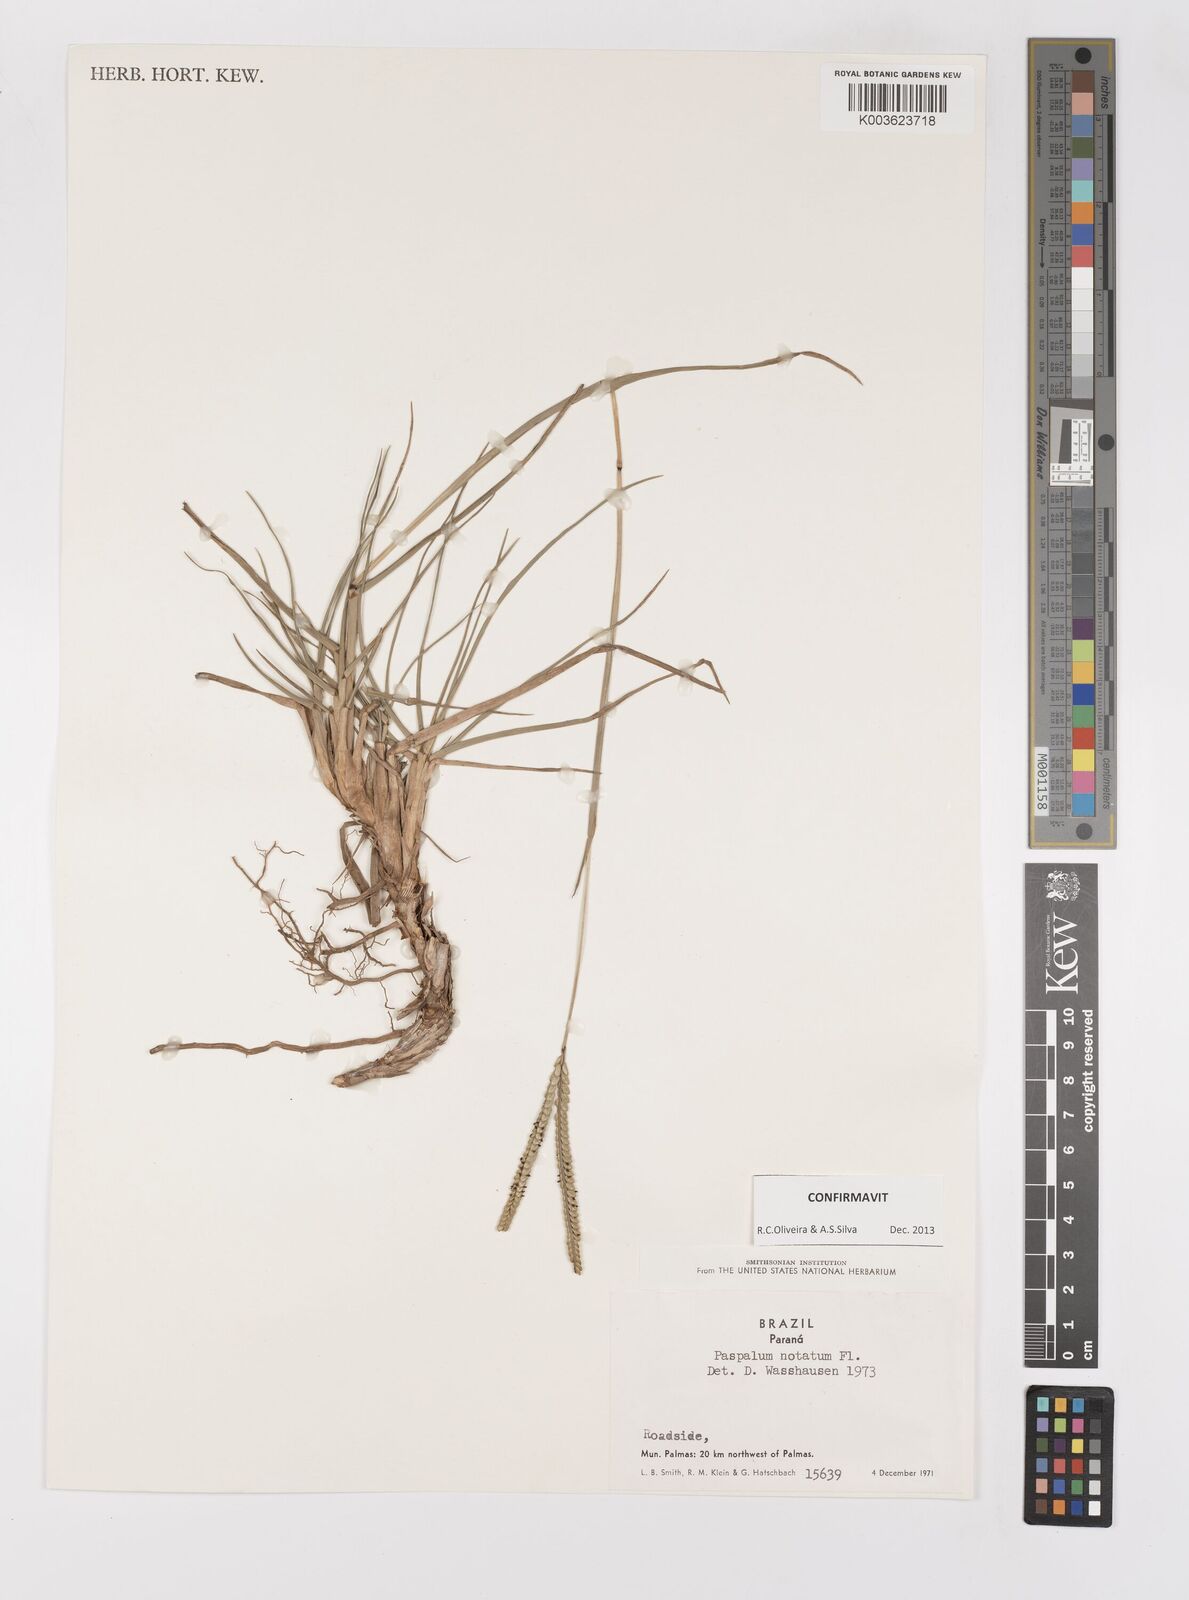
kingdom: Plantae
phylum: Tracheophyta
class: Liliopsida
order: Poales
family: Poaceae
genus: Paspalum
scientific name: Paspalum notatum
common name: Bahiagrass
